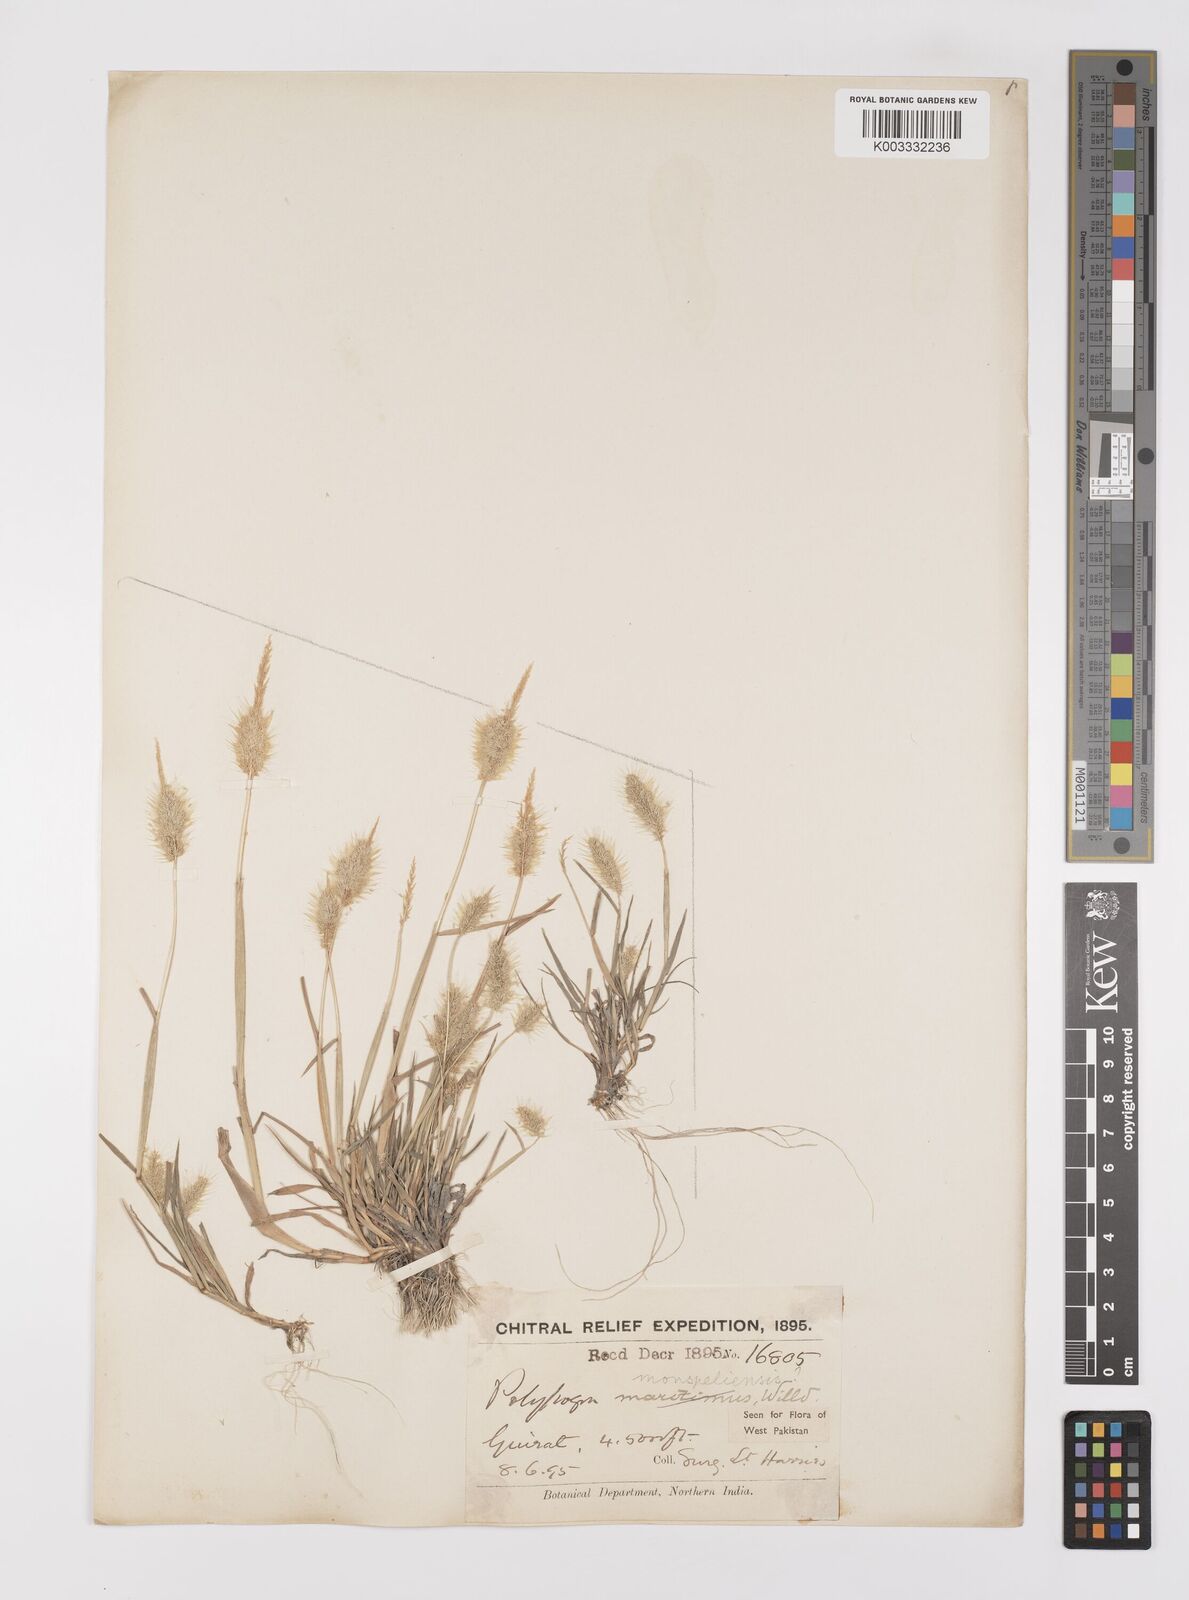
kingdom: Plantae
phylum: Tracheophyta
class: Liliopsida
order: Poales
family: Poaceae
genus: Polypogon
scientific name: Polypogon monspeliensis
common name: Annual rabbitsfoot grass
